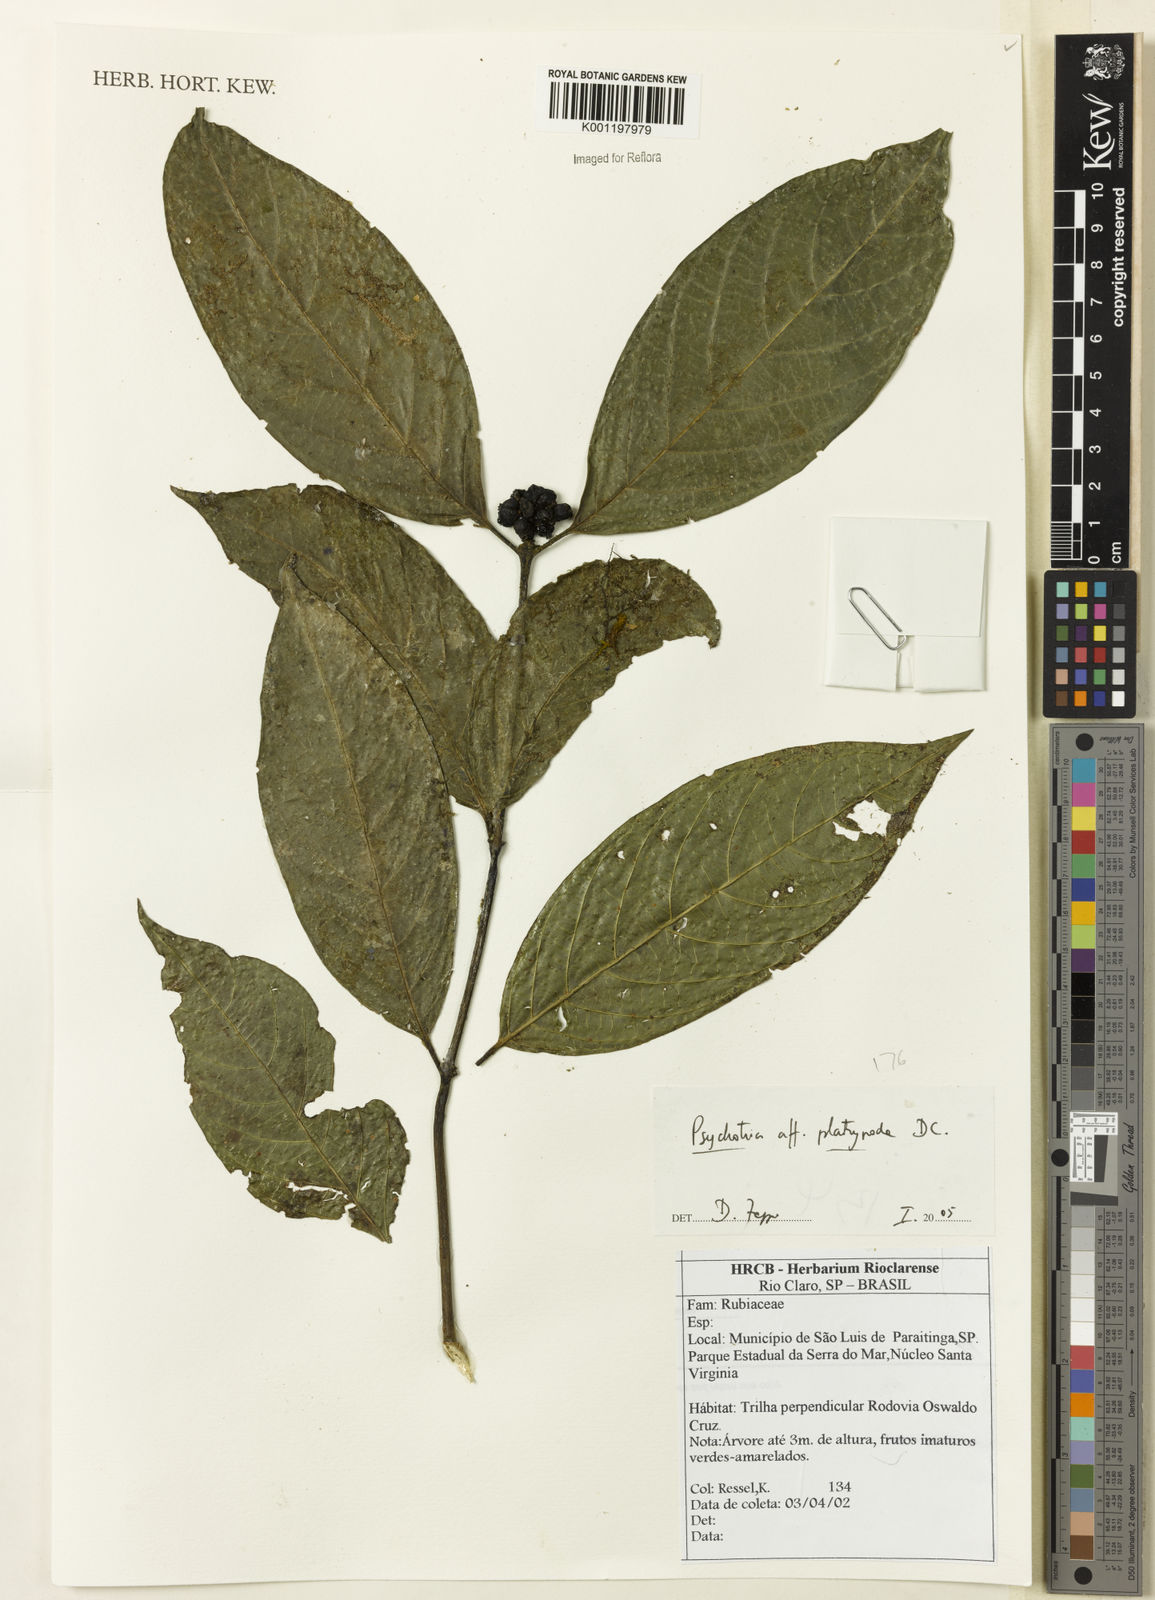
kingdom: Plantae
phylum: Tracheophyta
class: Magnoliopsida
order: Gentianales
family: Rubiaceae
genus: Palicourea
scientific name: Palicourea dichotoma
